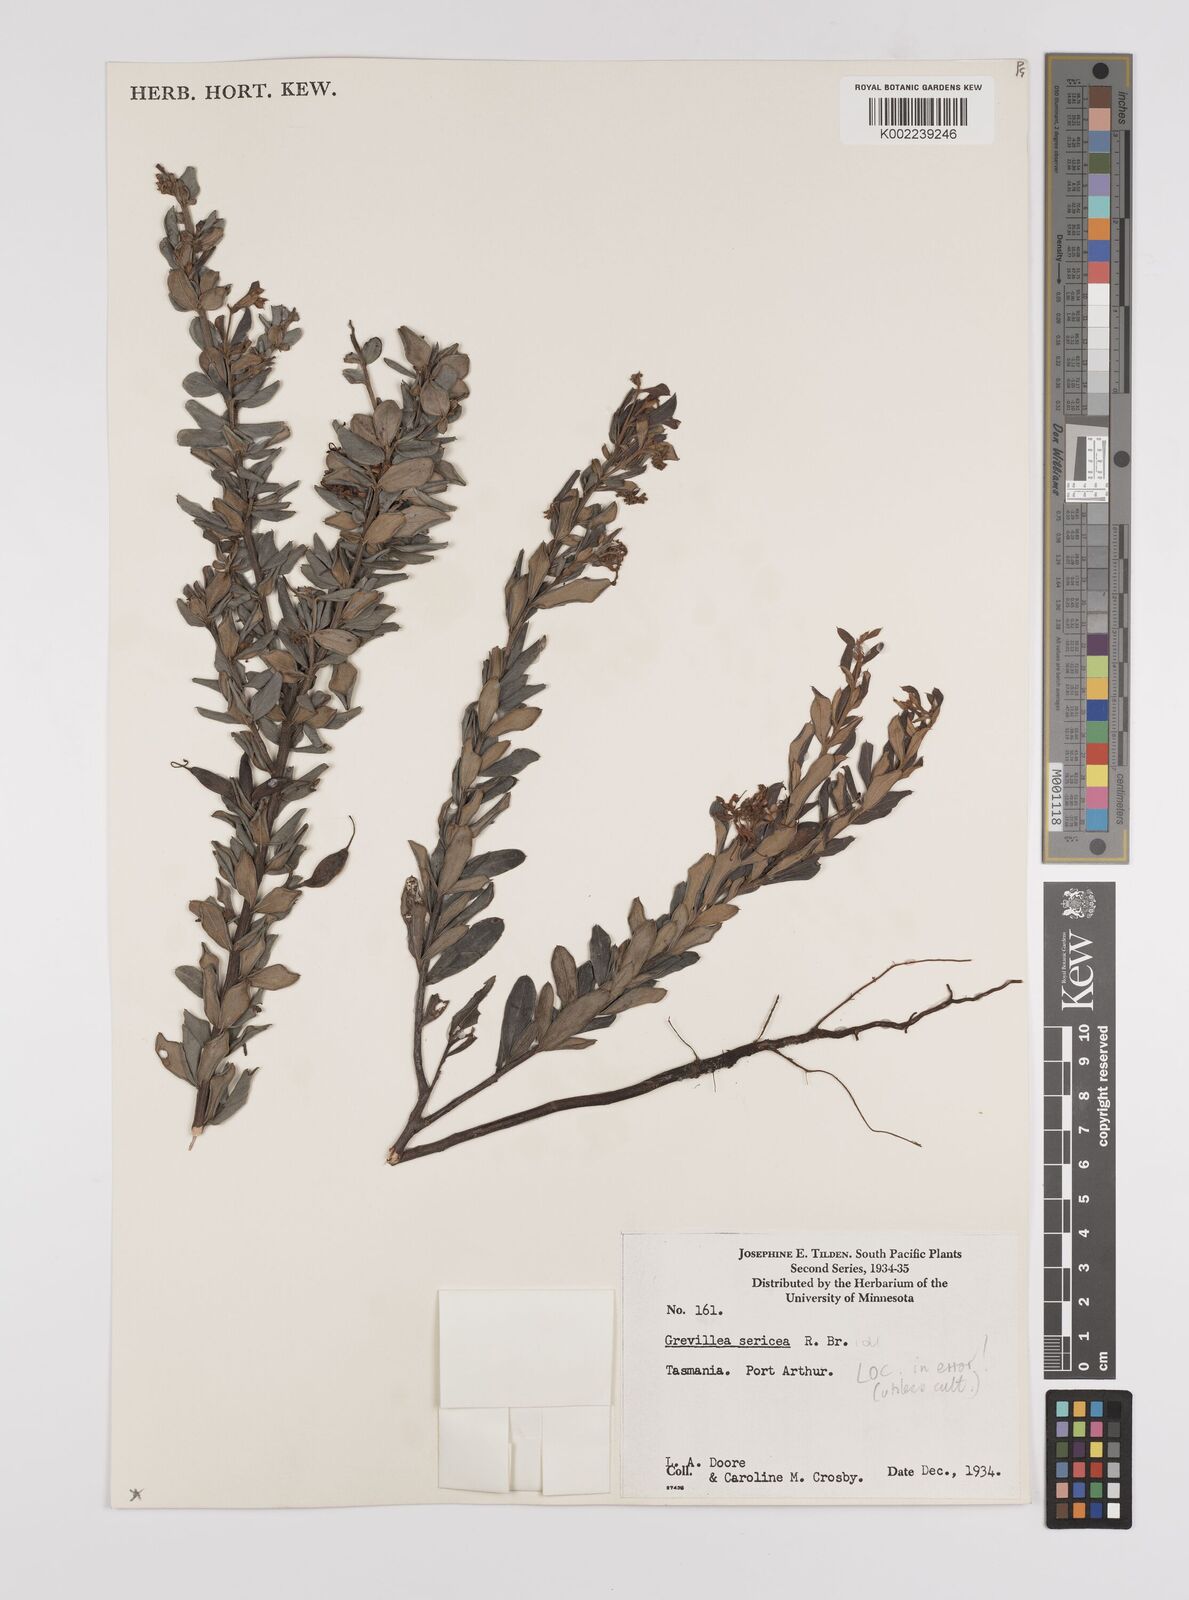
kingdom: Plantae
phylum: Tracheophyta
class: Magnoliopsida
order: Proteales
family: Proteaceae
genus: Grevillea
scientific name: Grevillea sericea
